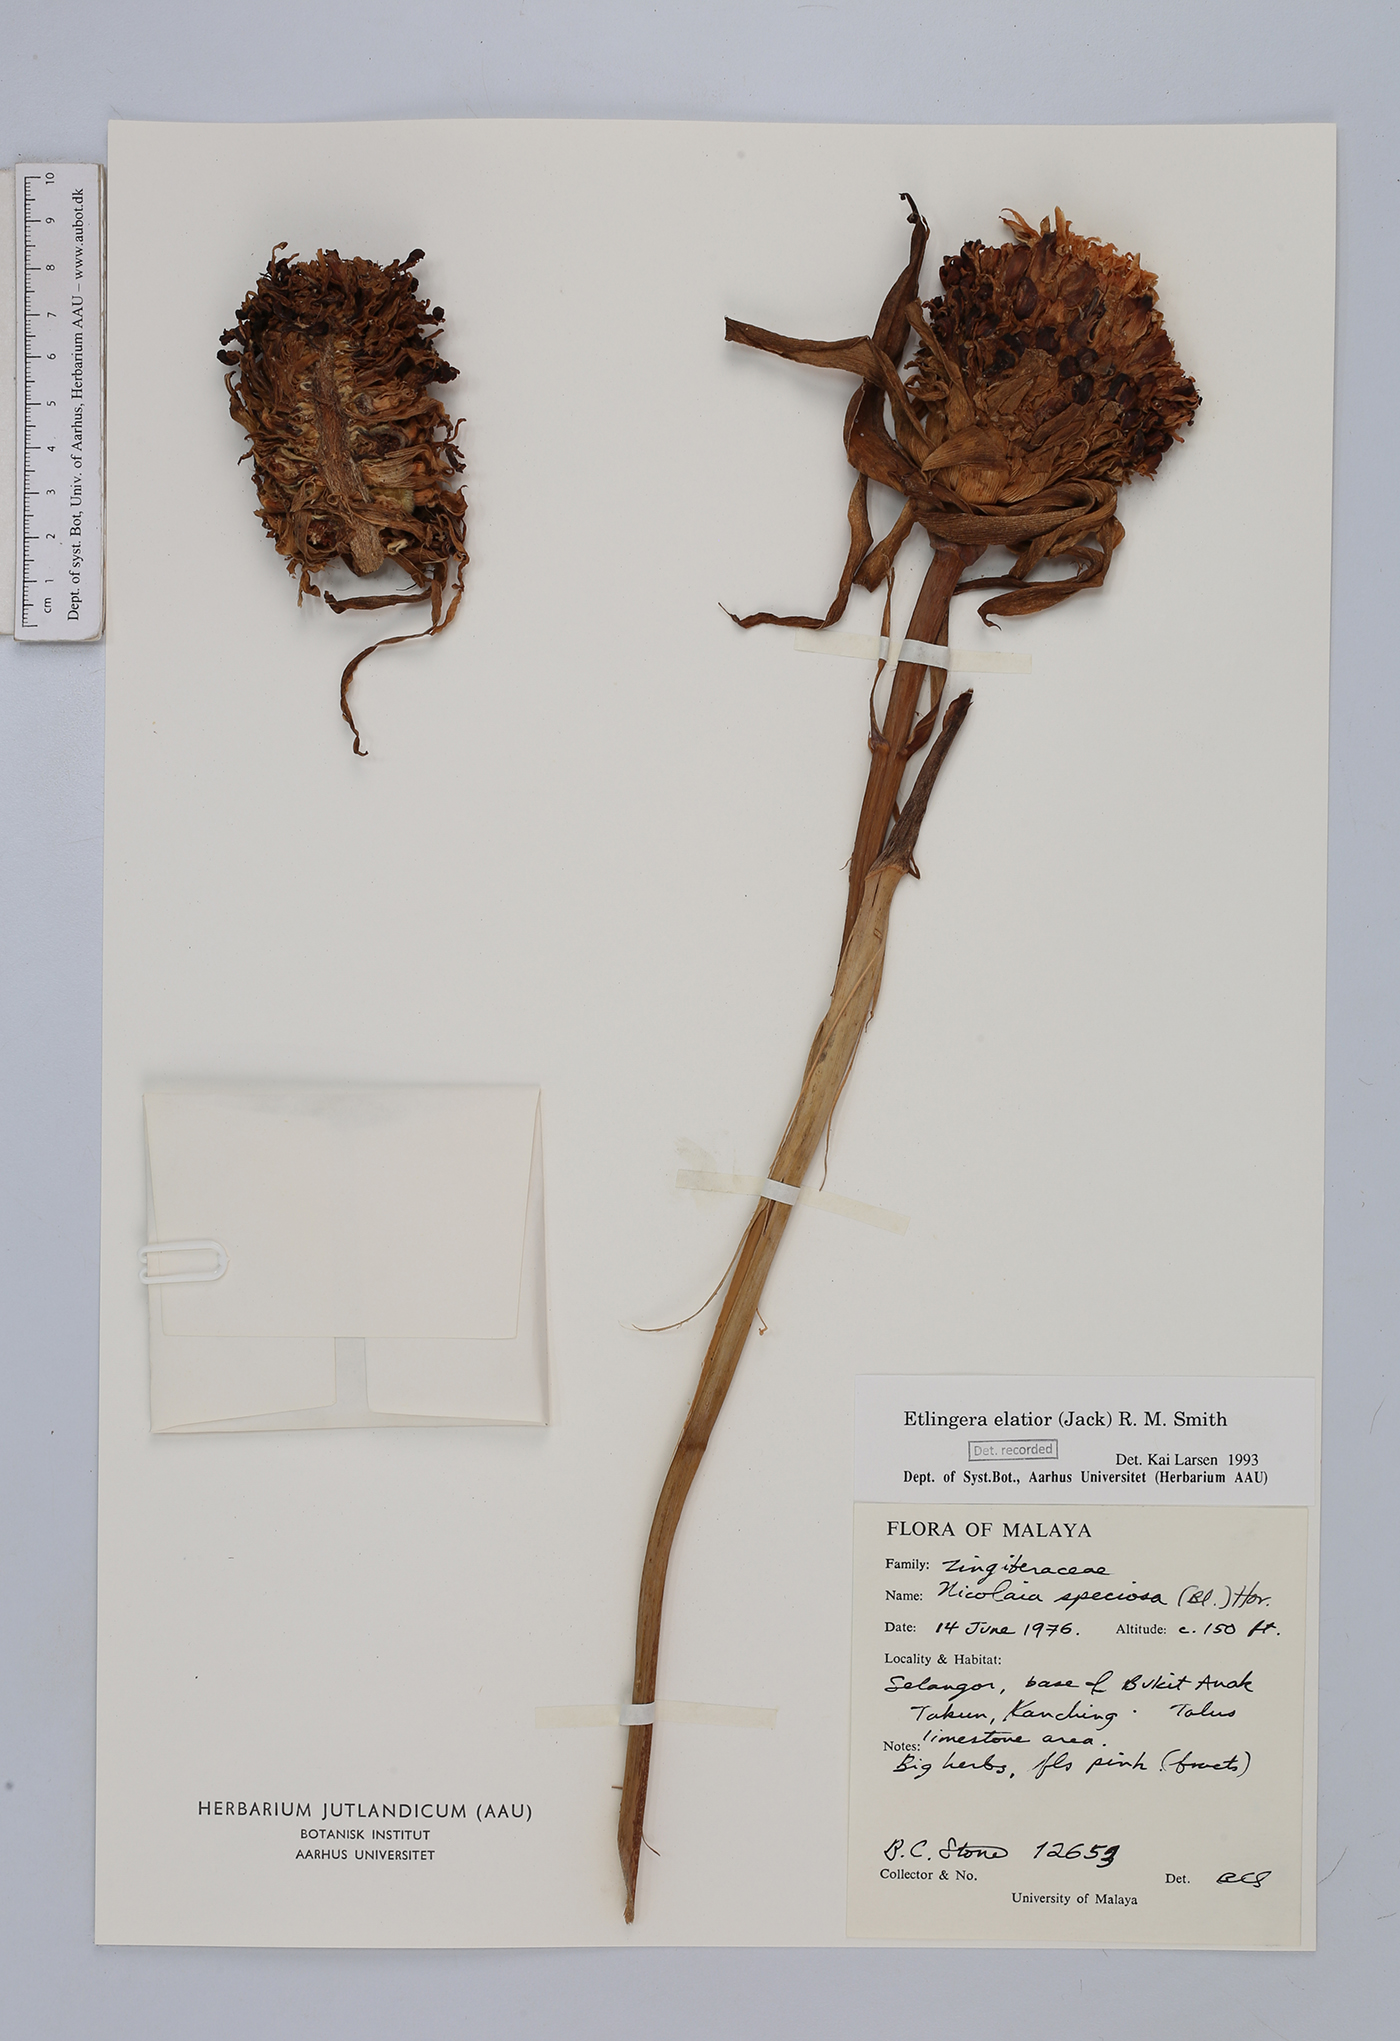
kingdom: Plantae
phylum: Tracheophyta
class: Liliopsida
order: Zingiberales
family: Zingiberaceae
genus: Etlingera
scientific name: Etlingera elatior
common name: Philippine waxflower
